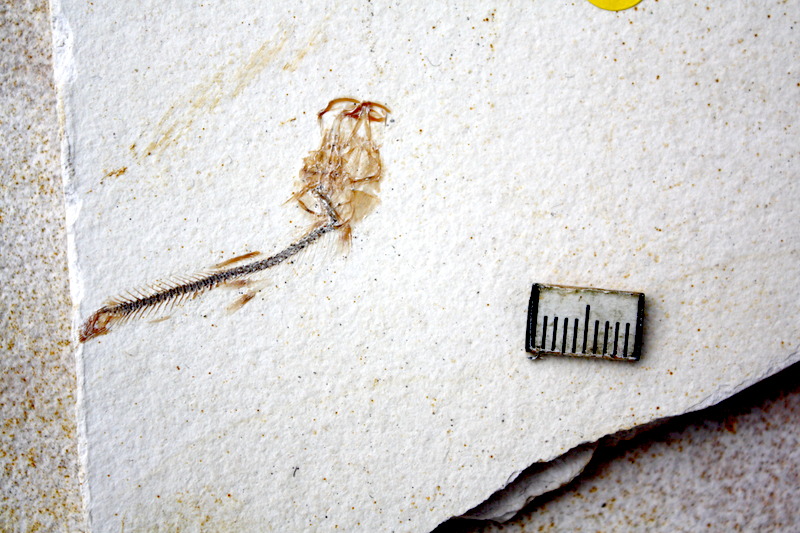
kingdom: Animalia
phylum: Chordata
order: Salmoniformes
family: Orthogonikleithridae
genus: Orthogonikleithrus
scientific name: Orthogonikleithrus hoelli
